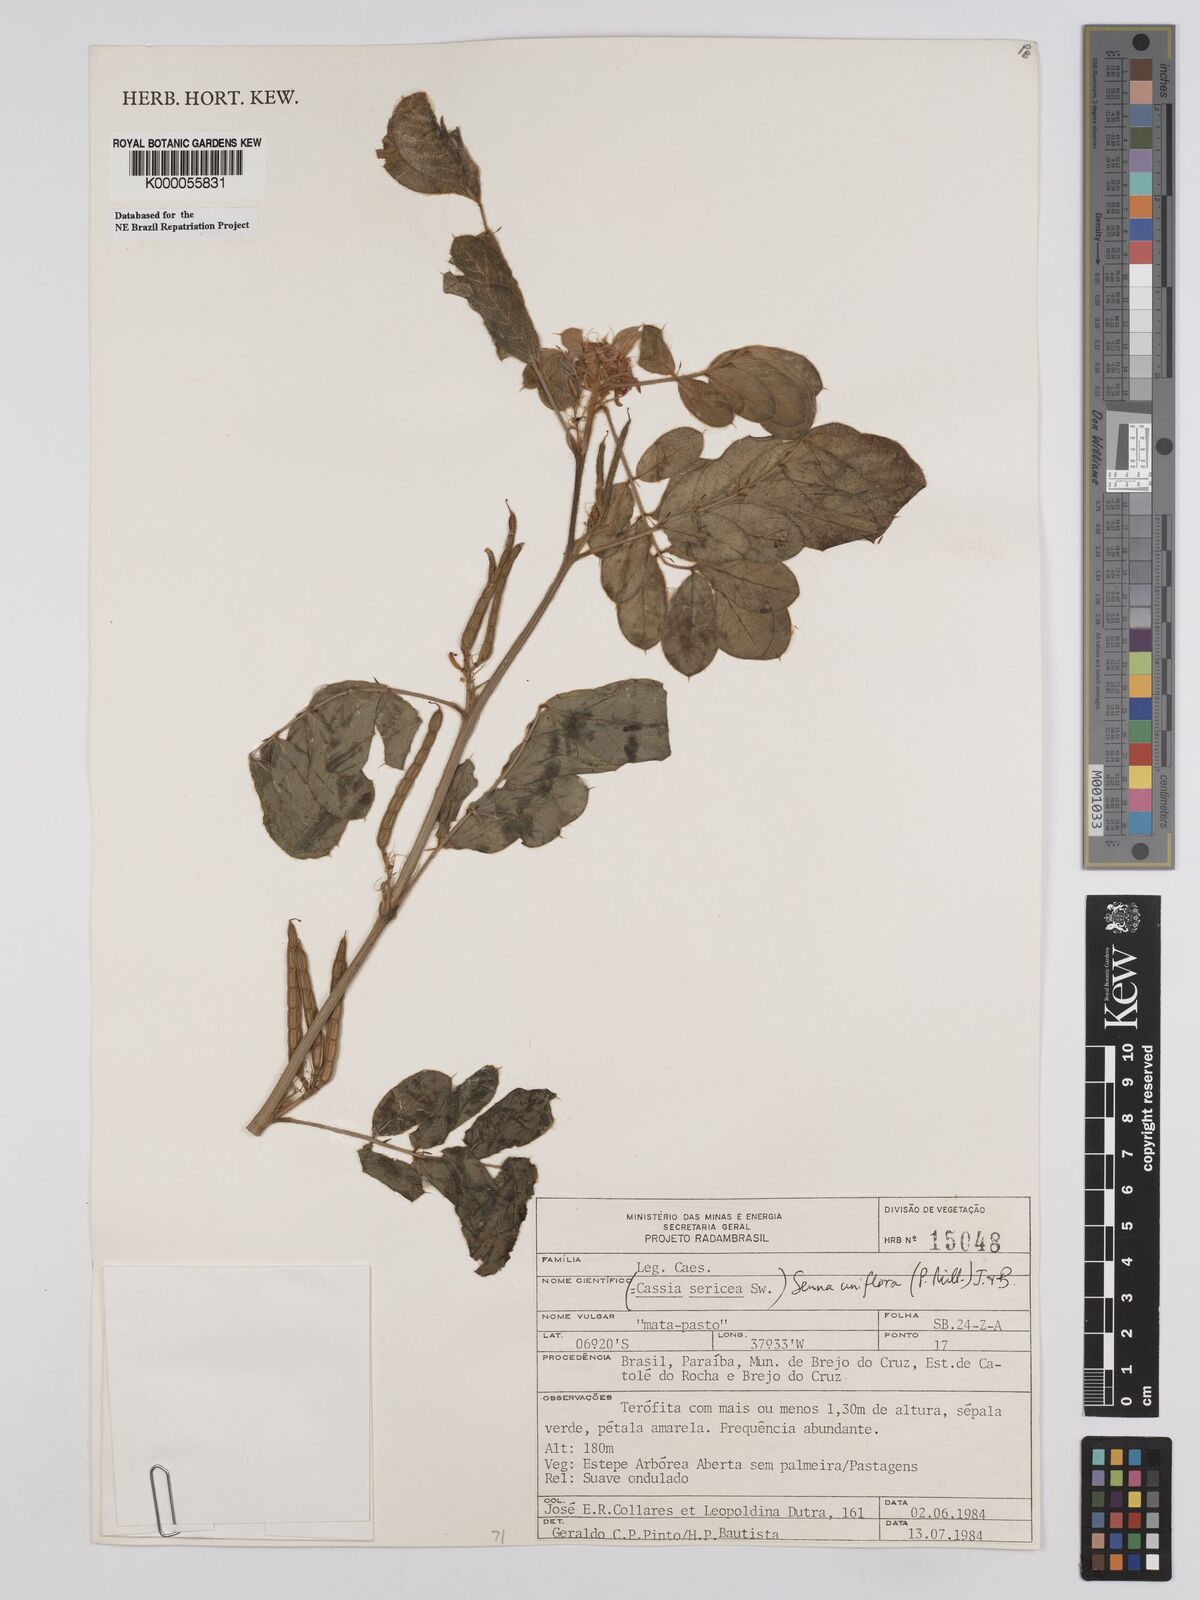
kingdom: Plantae
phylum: Tracheophyta
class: Magnoliopsida
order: Fabales
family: Fabaceae
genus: Senna
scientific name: Senna uniflora
